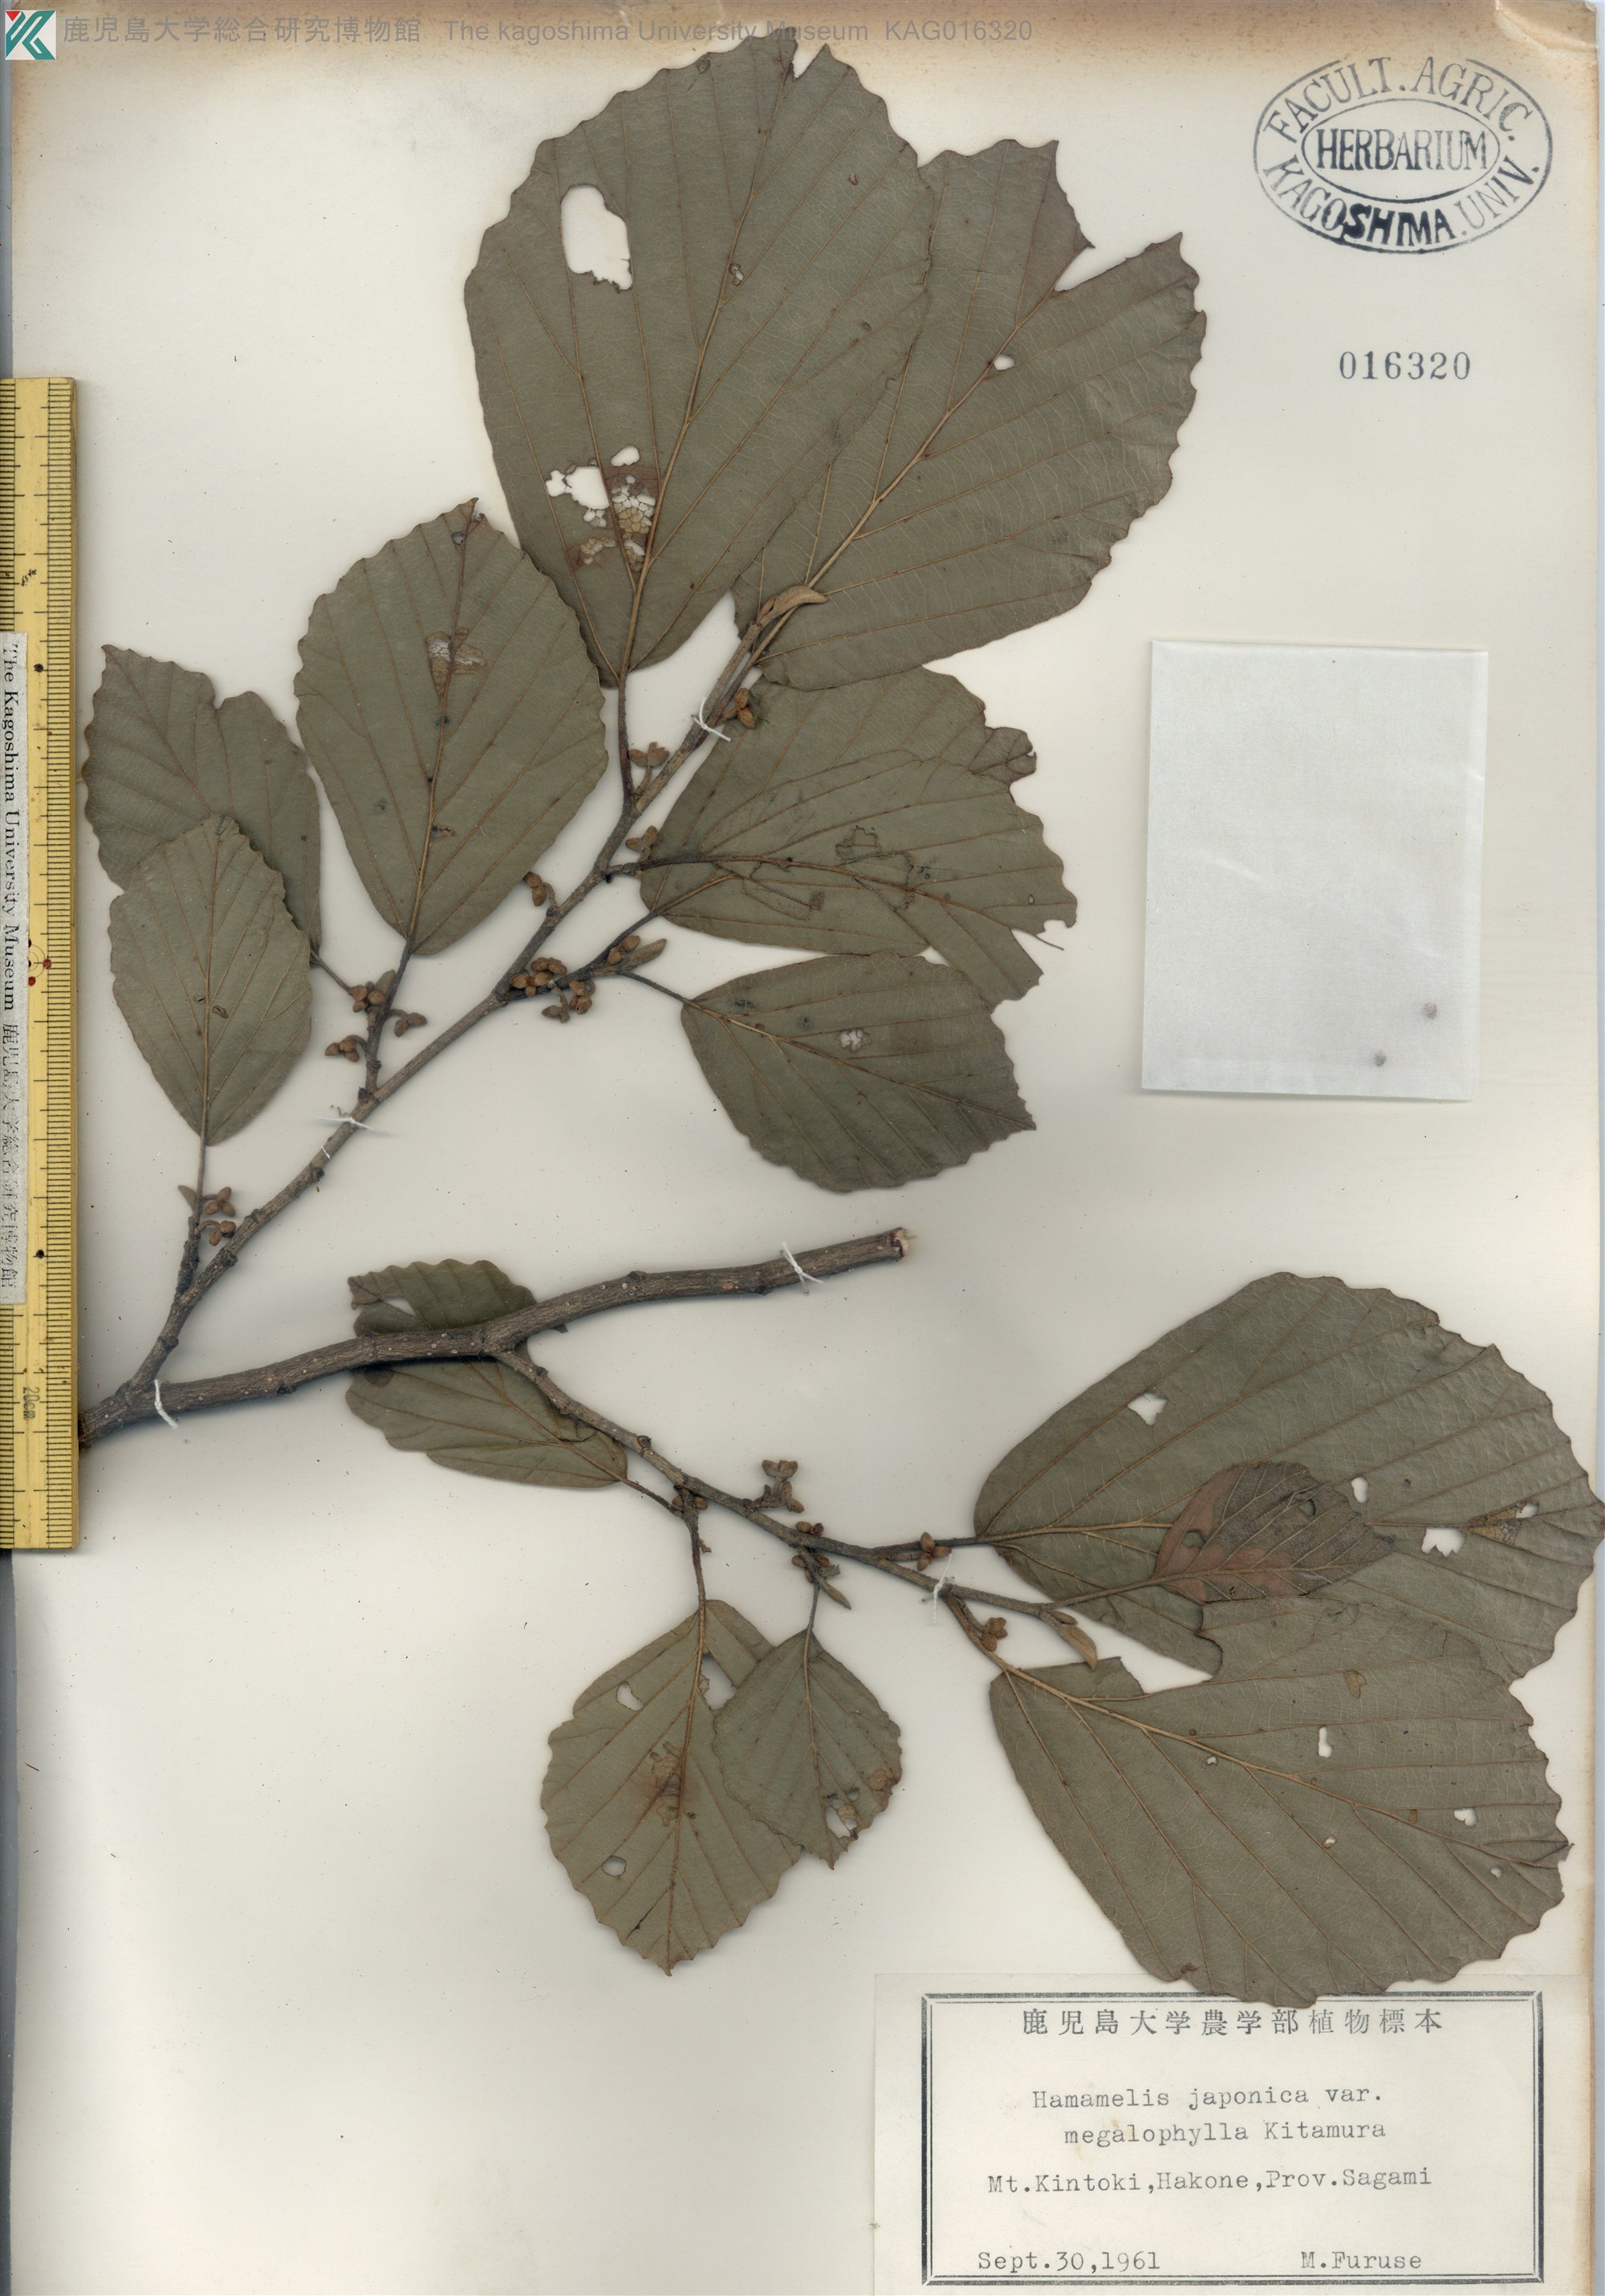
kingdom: Plantae
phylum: Tracheophyta
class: Magnoliopsida
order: Saxifragales
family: Hamamelidaceae
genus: Hamamelis
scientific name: Hamamelis japonica
